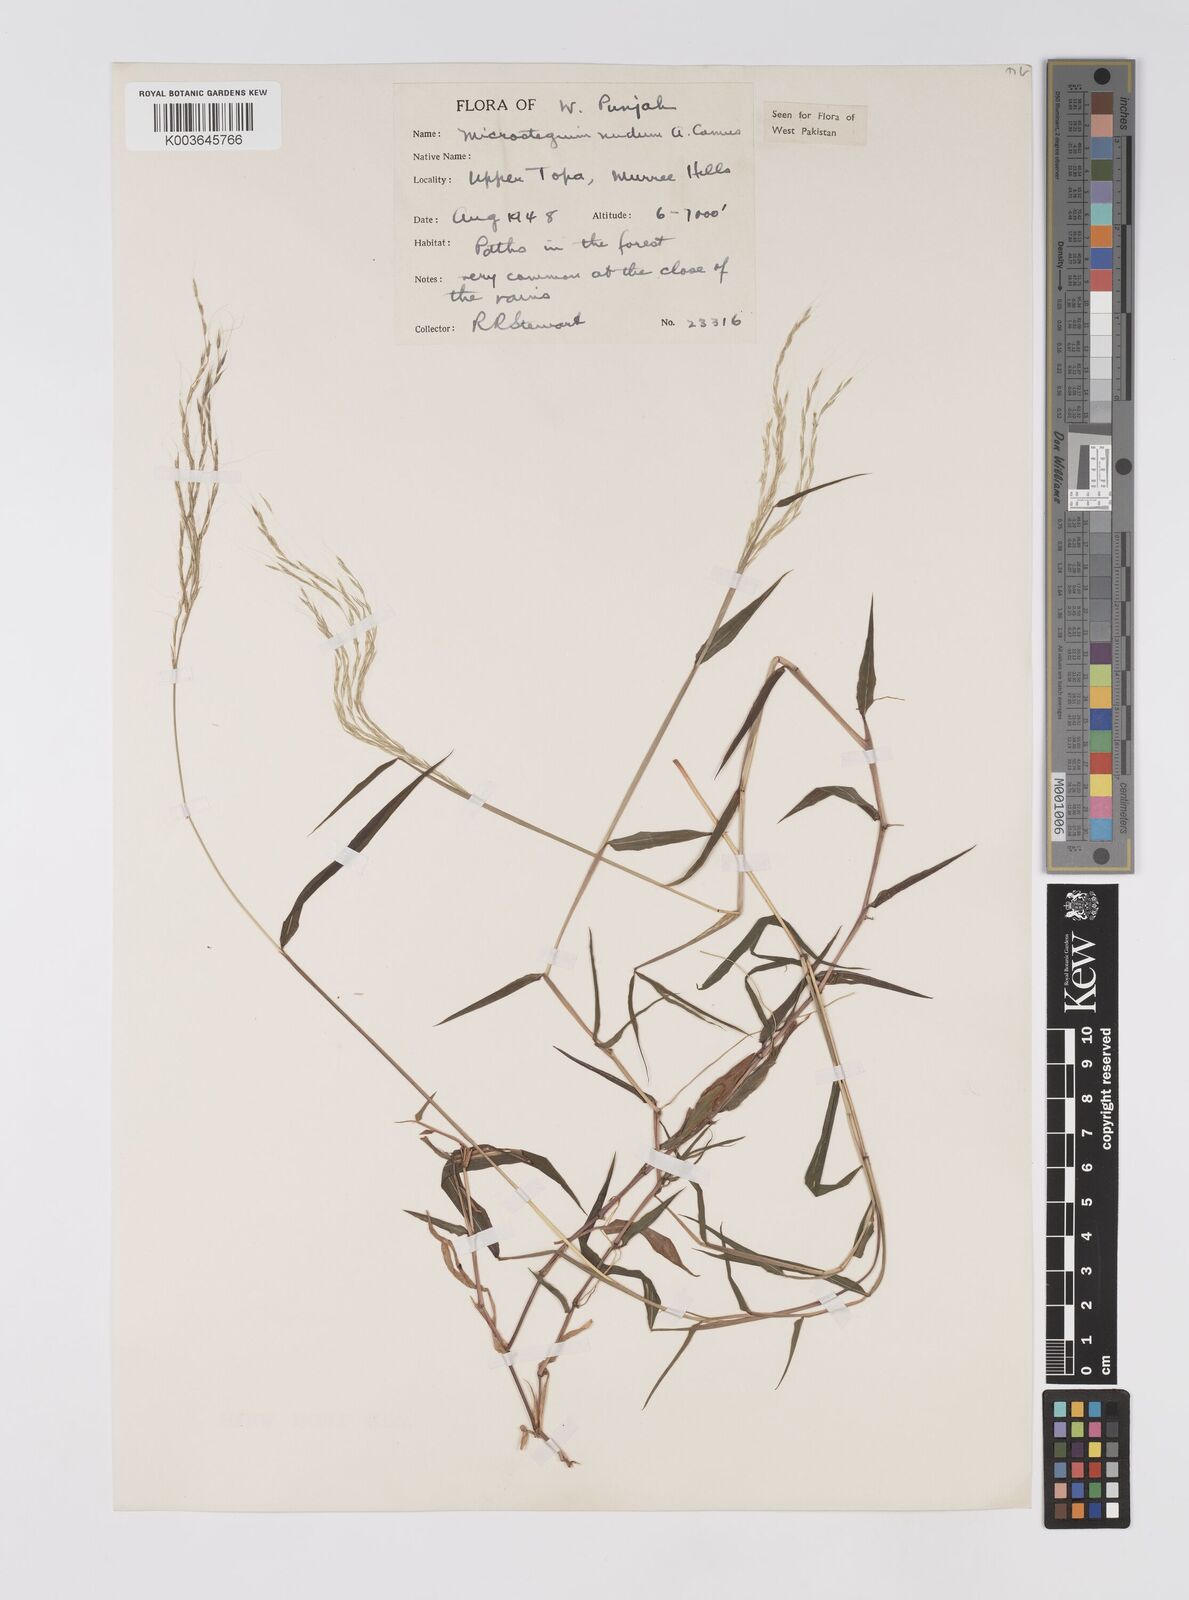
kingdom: Plantae
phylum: Tracheophyta
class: Liliopsida
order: Poales
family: Poaceae
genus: Microstegium
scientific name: Microstegium nudum
